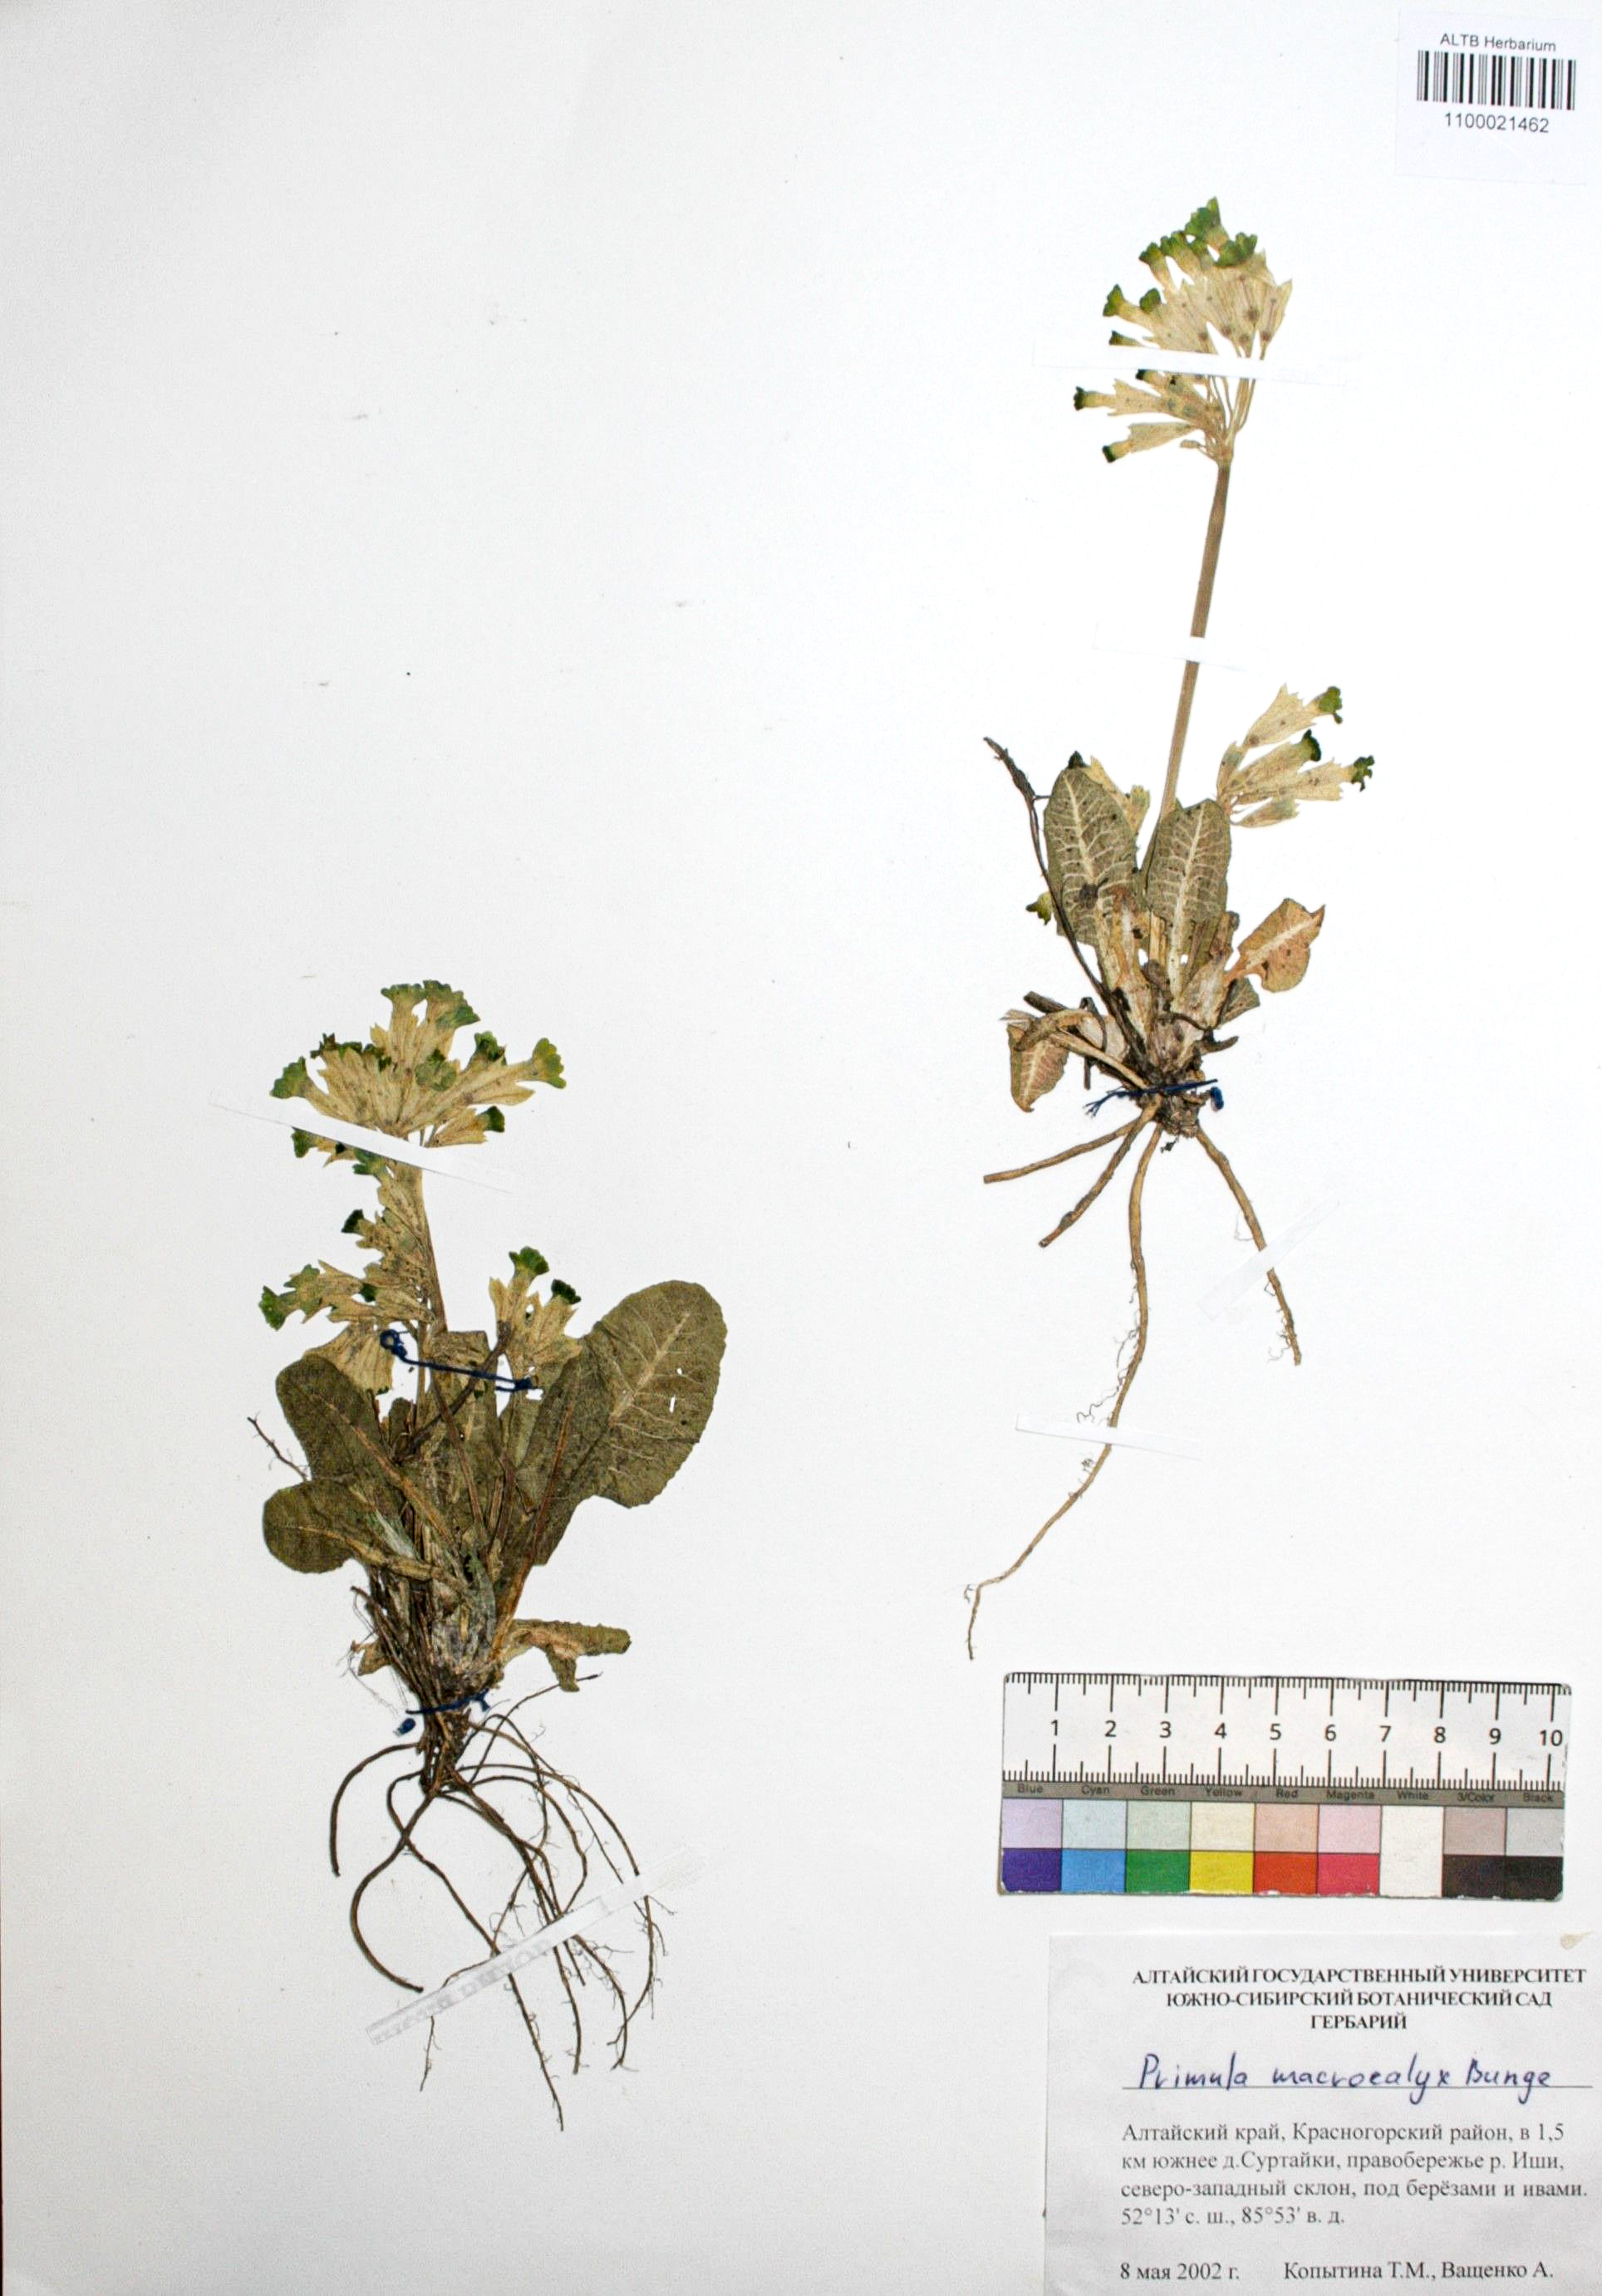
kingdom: Plantae
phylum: Tracheophyta
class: Magnoliopsida
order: Ericales
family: Primulaceae
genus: Primula
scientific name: Primula veris
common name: Cowslip
